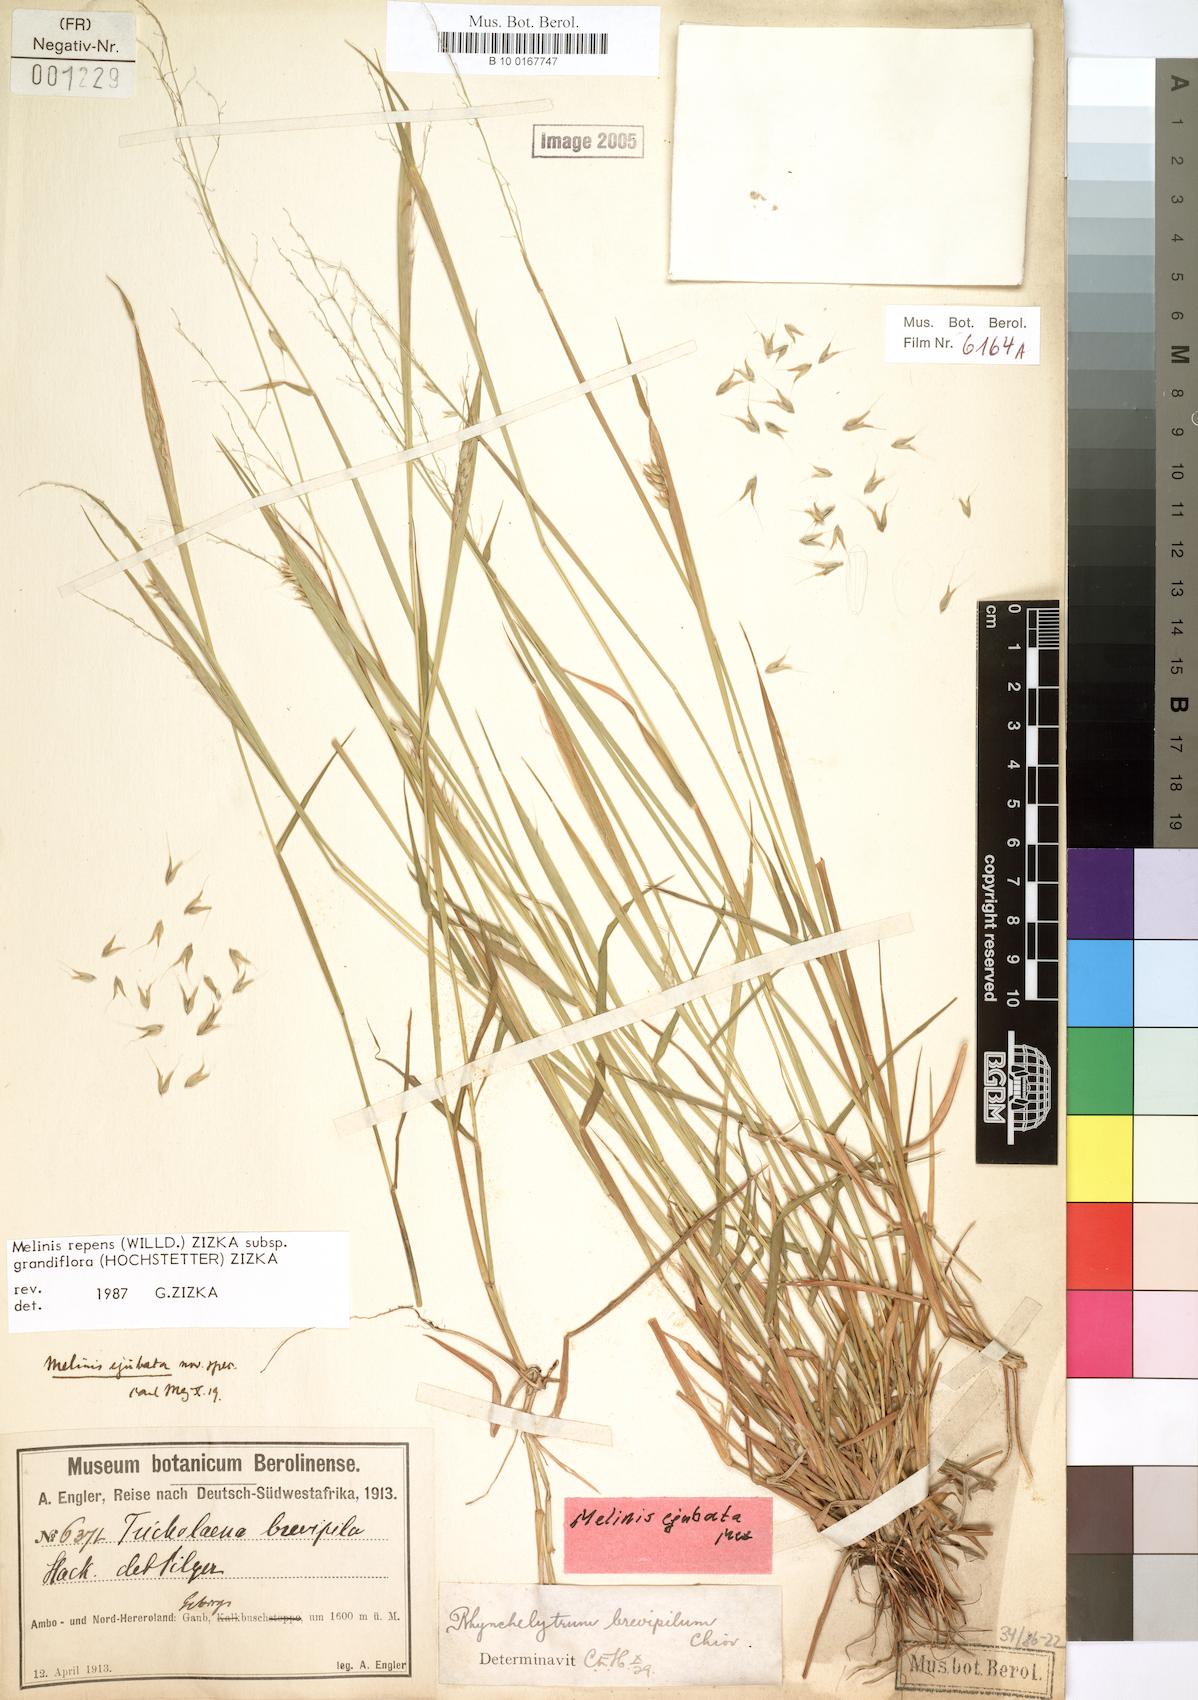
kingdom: Plantae
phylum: Tracheophyta
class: Liliopsida
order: Poales
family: Poaceae
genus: Melinis
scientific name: Melinis repens
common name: Rose natal grass
